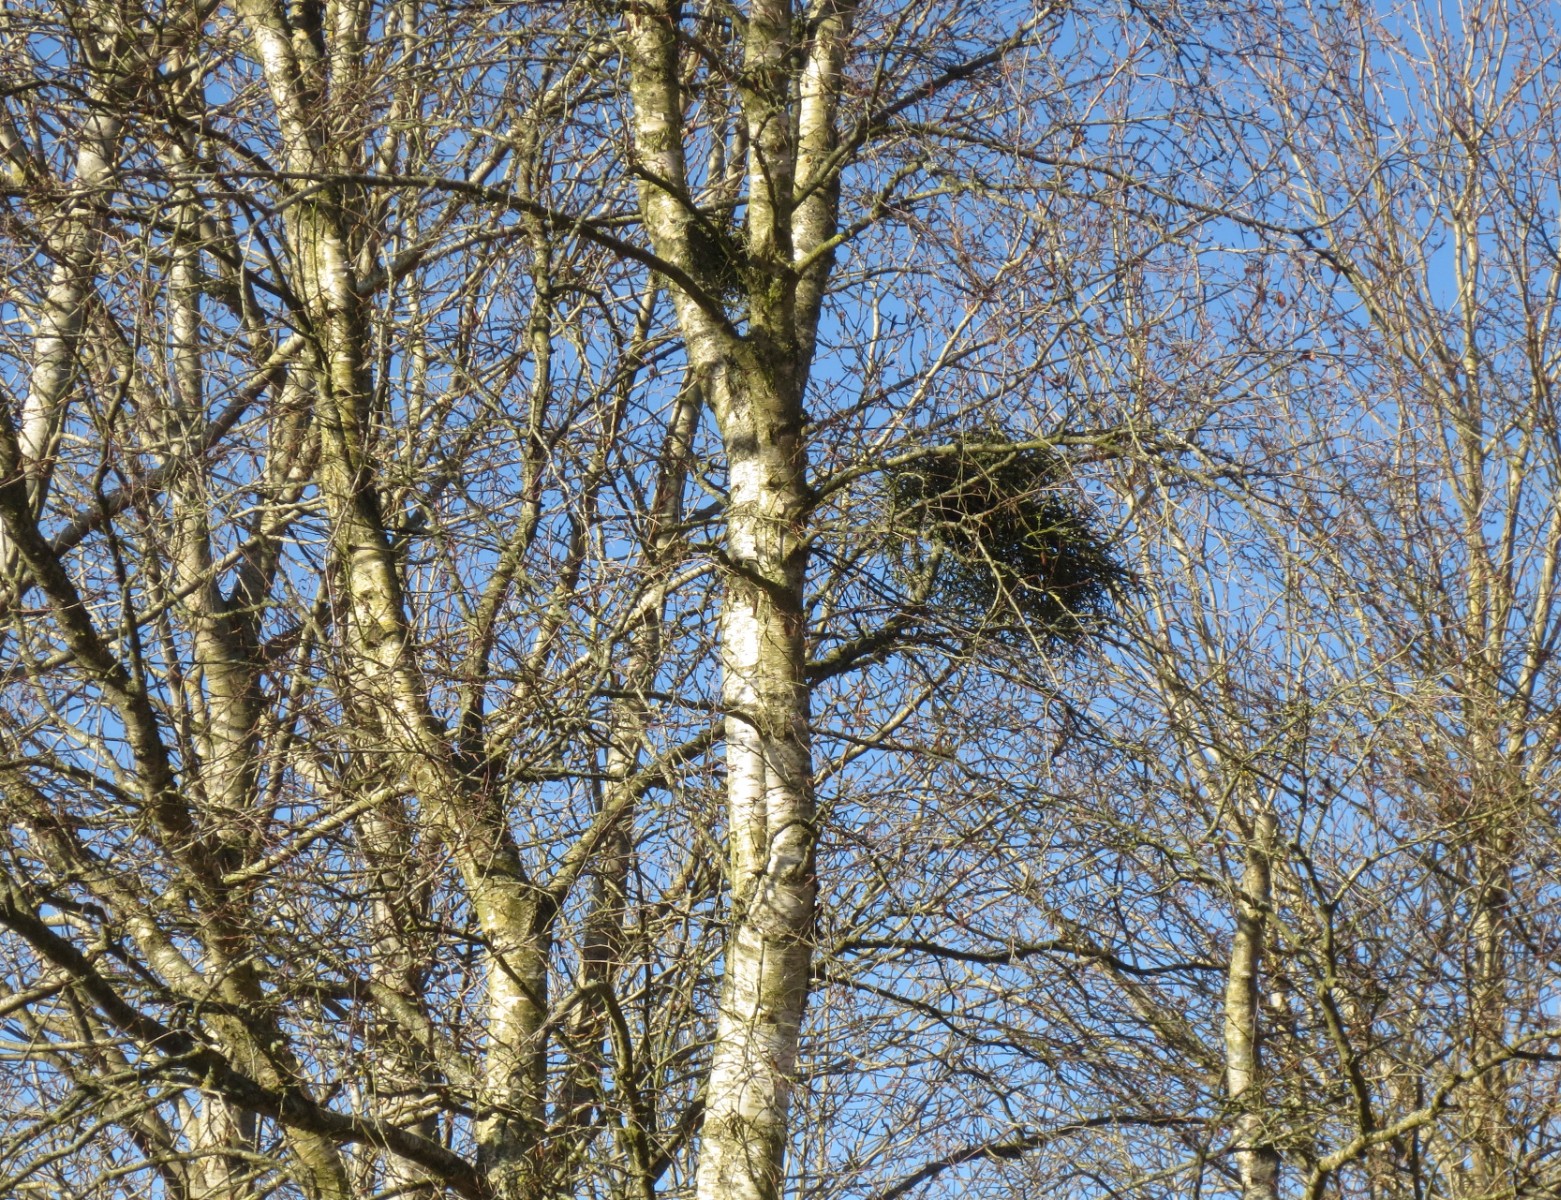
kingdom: Fungi
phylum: Ascomycota
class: Taphrinomycetes
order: Taphrinales
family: Taphrinaceae
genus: Taphrina
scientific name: Taphrina betulina
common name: hekse-sækdug
